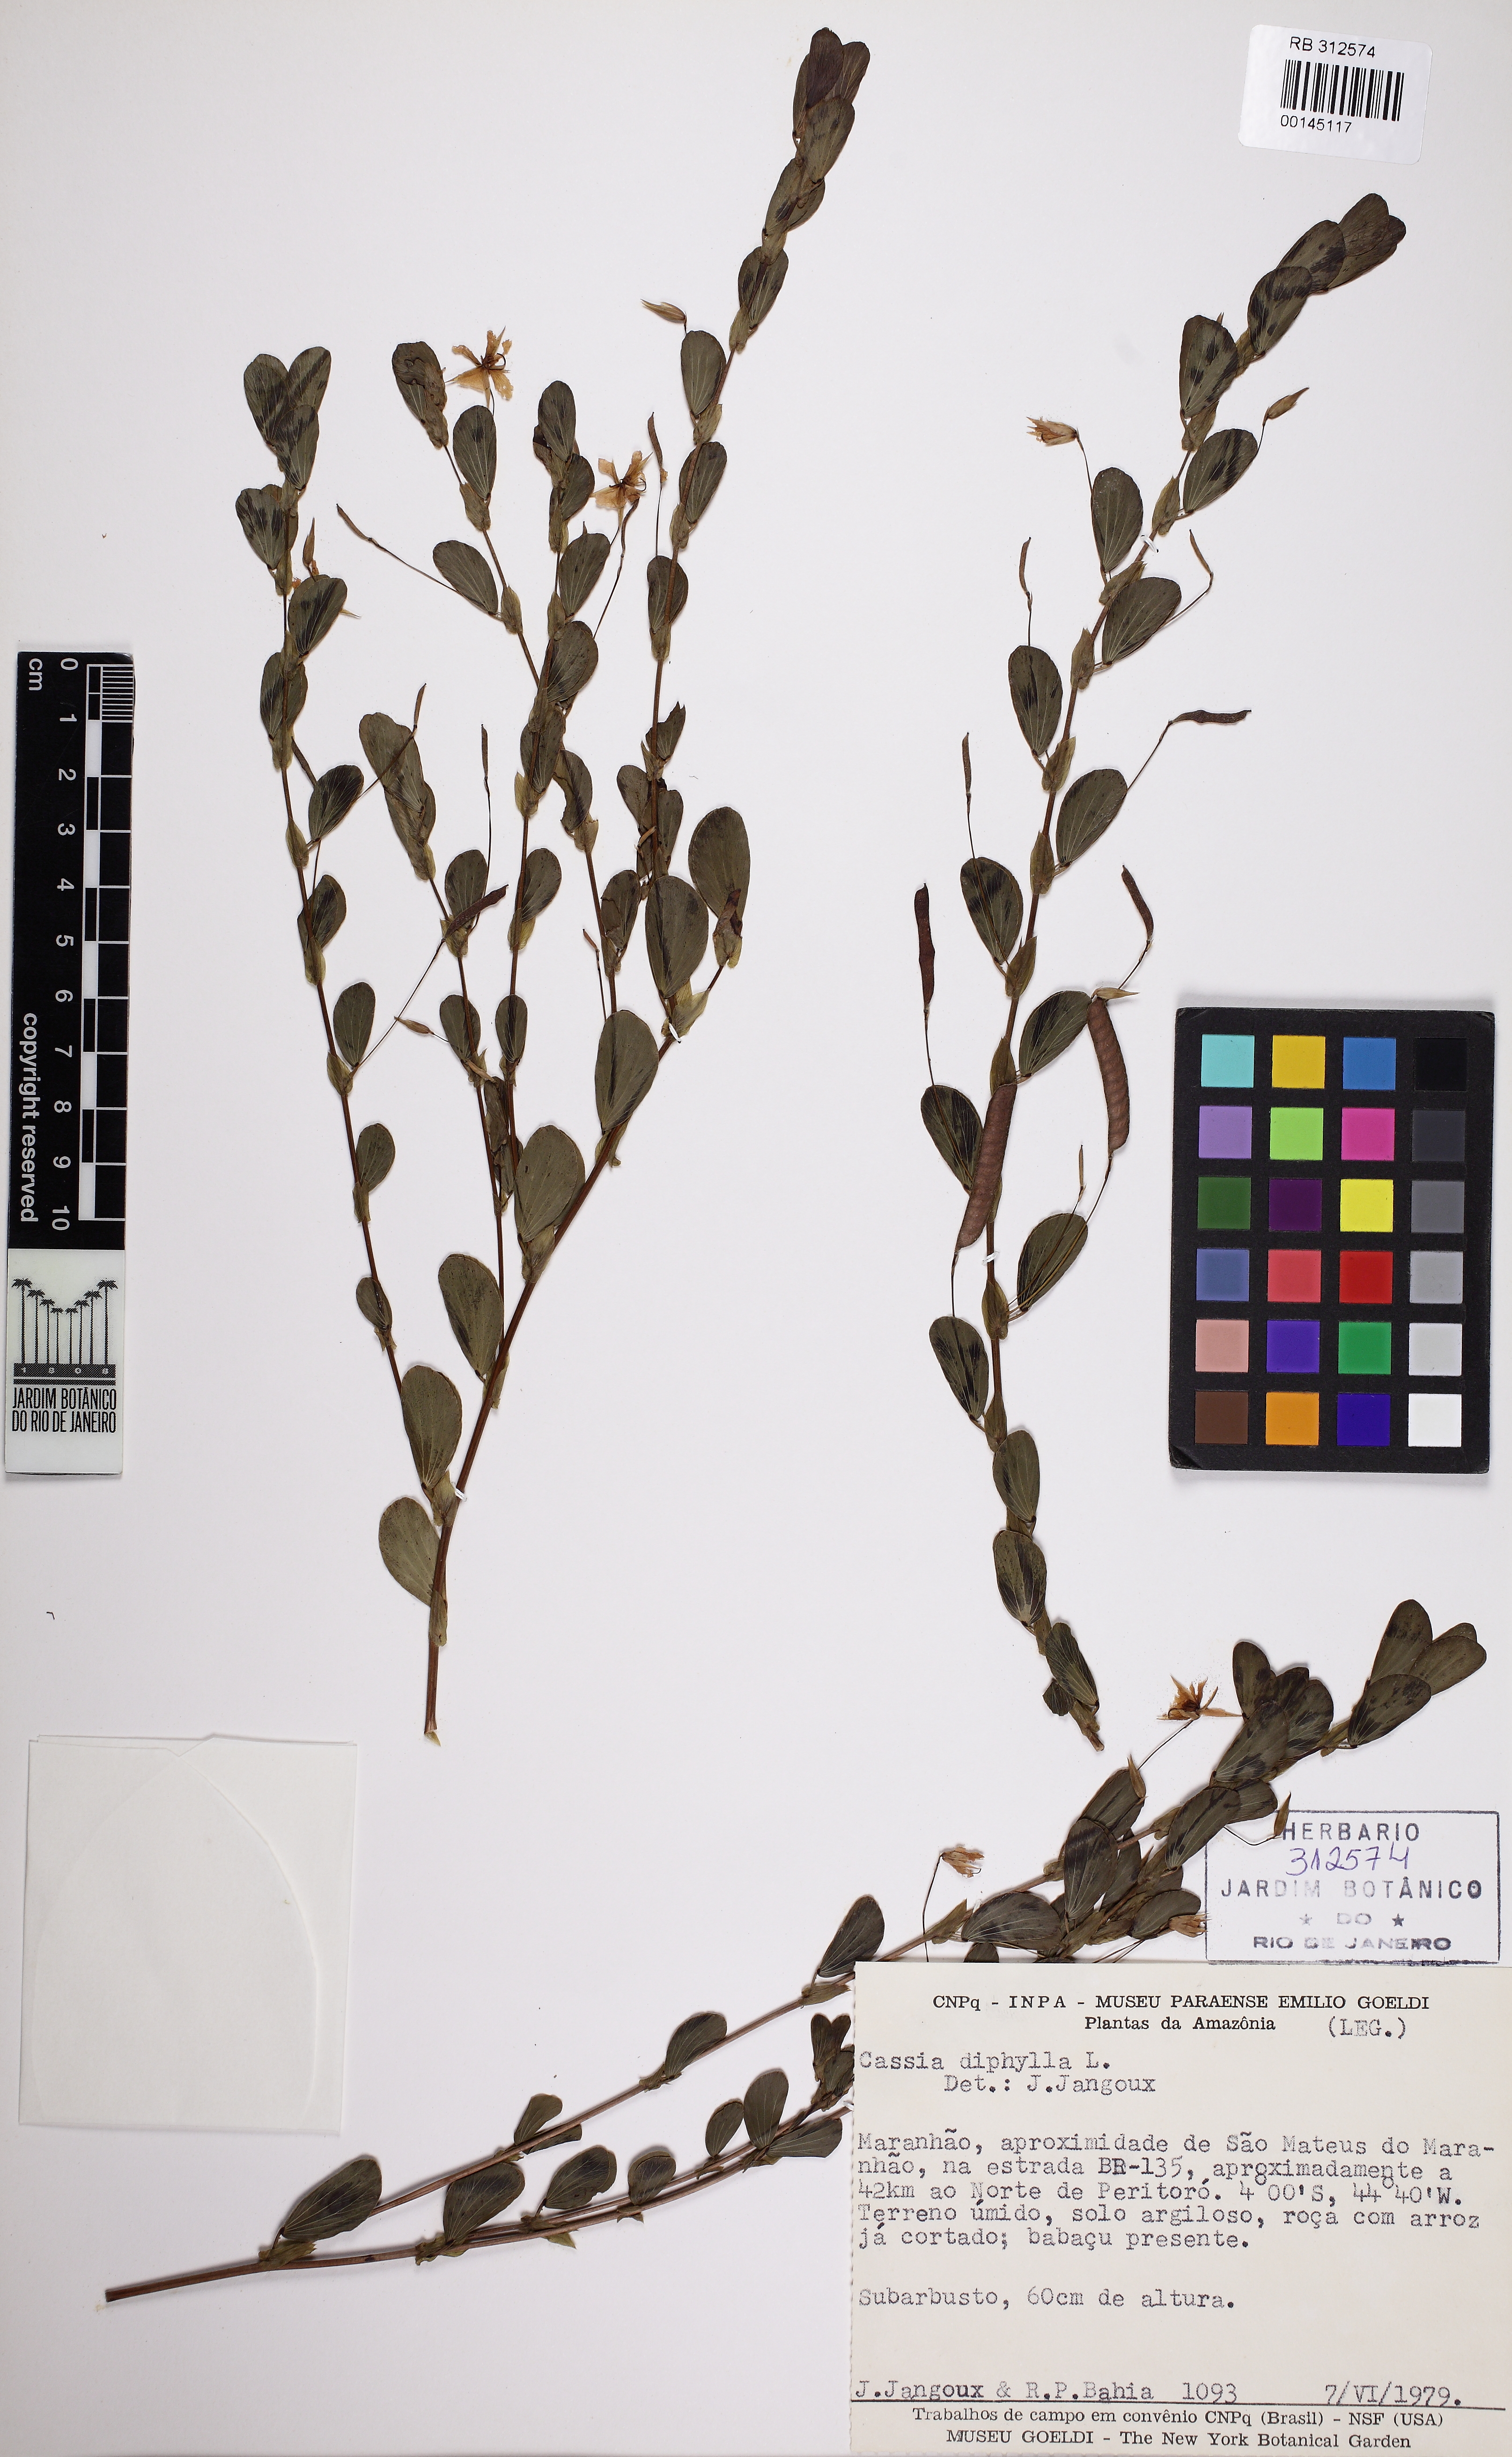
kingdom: Plantae
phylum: Tracheophyta
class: Magnoliopsida
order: Fabales
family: Fabaceae
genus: Chamaecrista
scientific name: Chamaecrista diphylla
